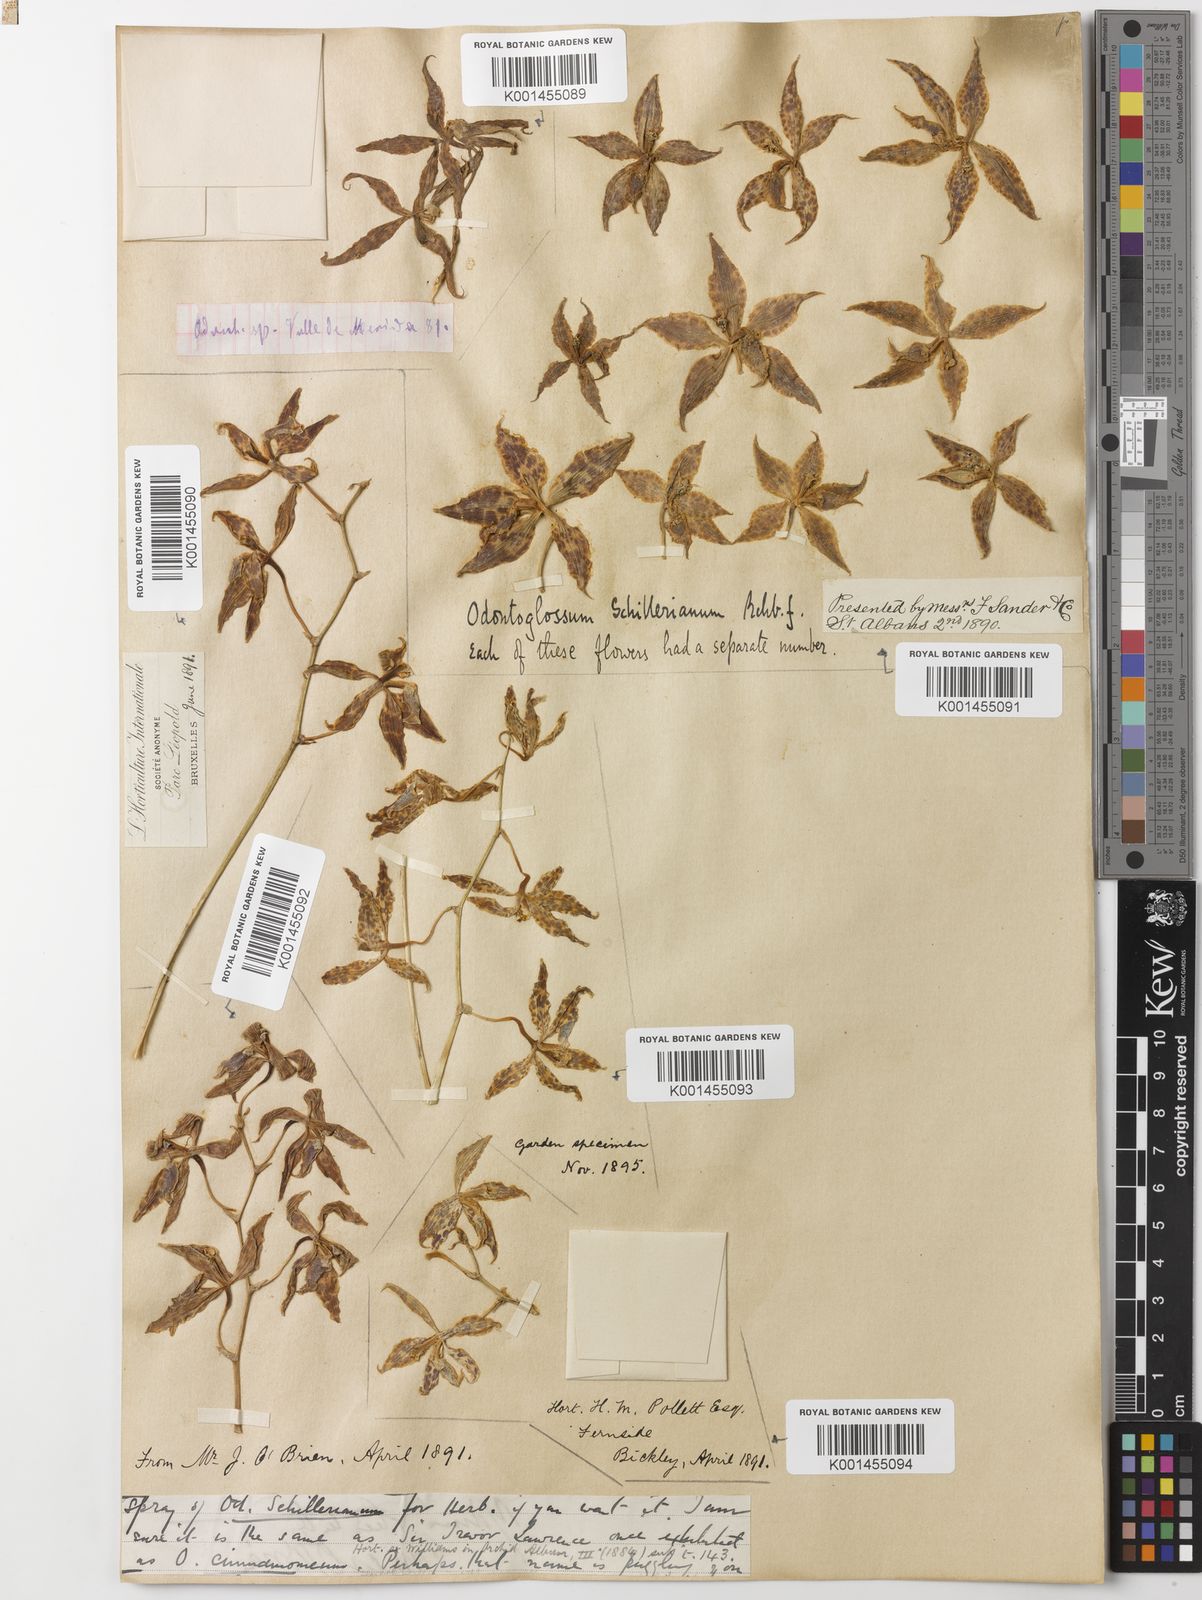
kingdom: Plantae
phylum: Tracheophyta
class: Liliopsida
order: Asparagales
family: Orchidaceae
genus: Oncidium
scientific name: Oncidium cinnamomeum
